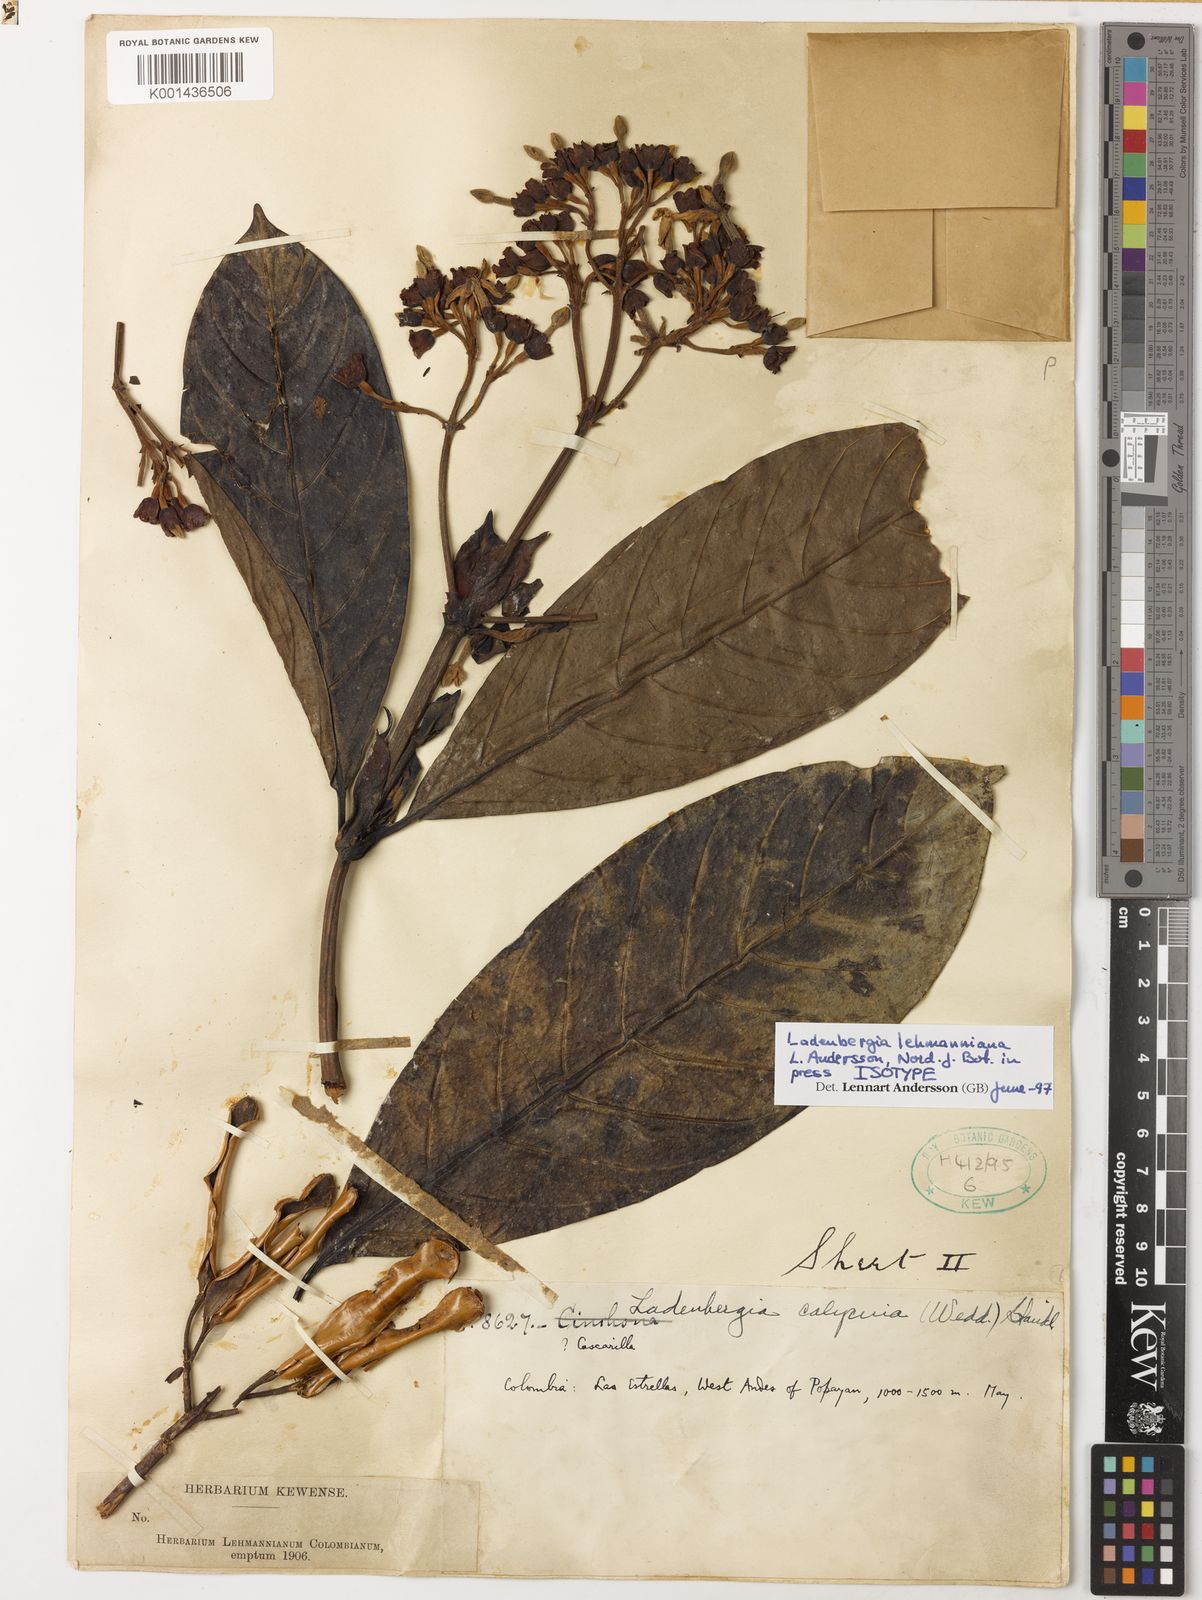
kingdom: Plantae
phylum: Tracheophyta
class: Magnoliopsida
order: Gentianales
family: Rubiaceae
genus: Ladenbergia
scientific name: Ladenbergia lehmanniana
